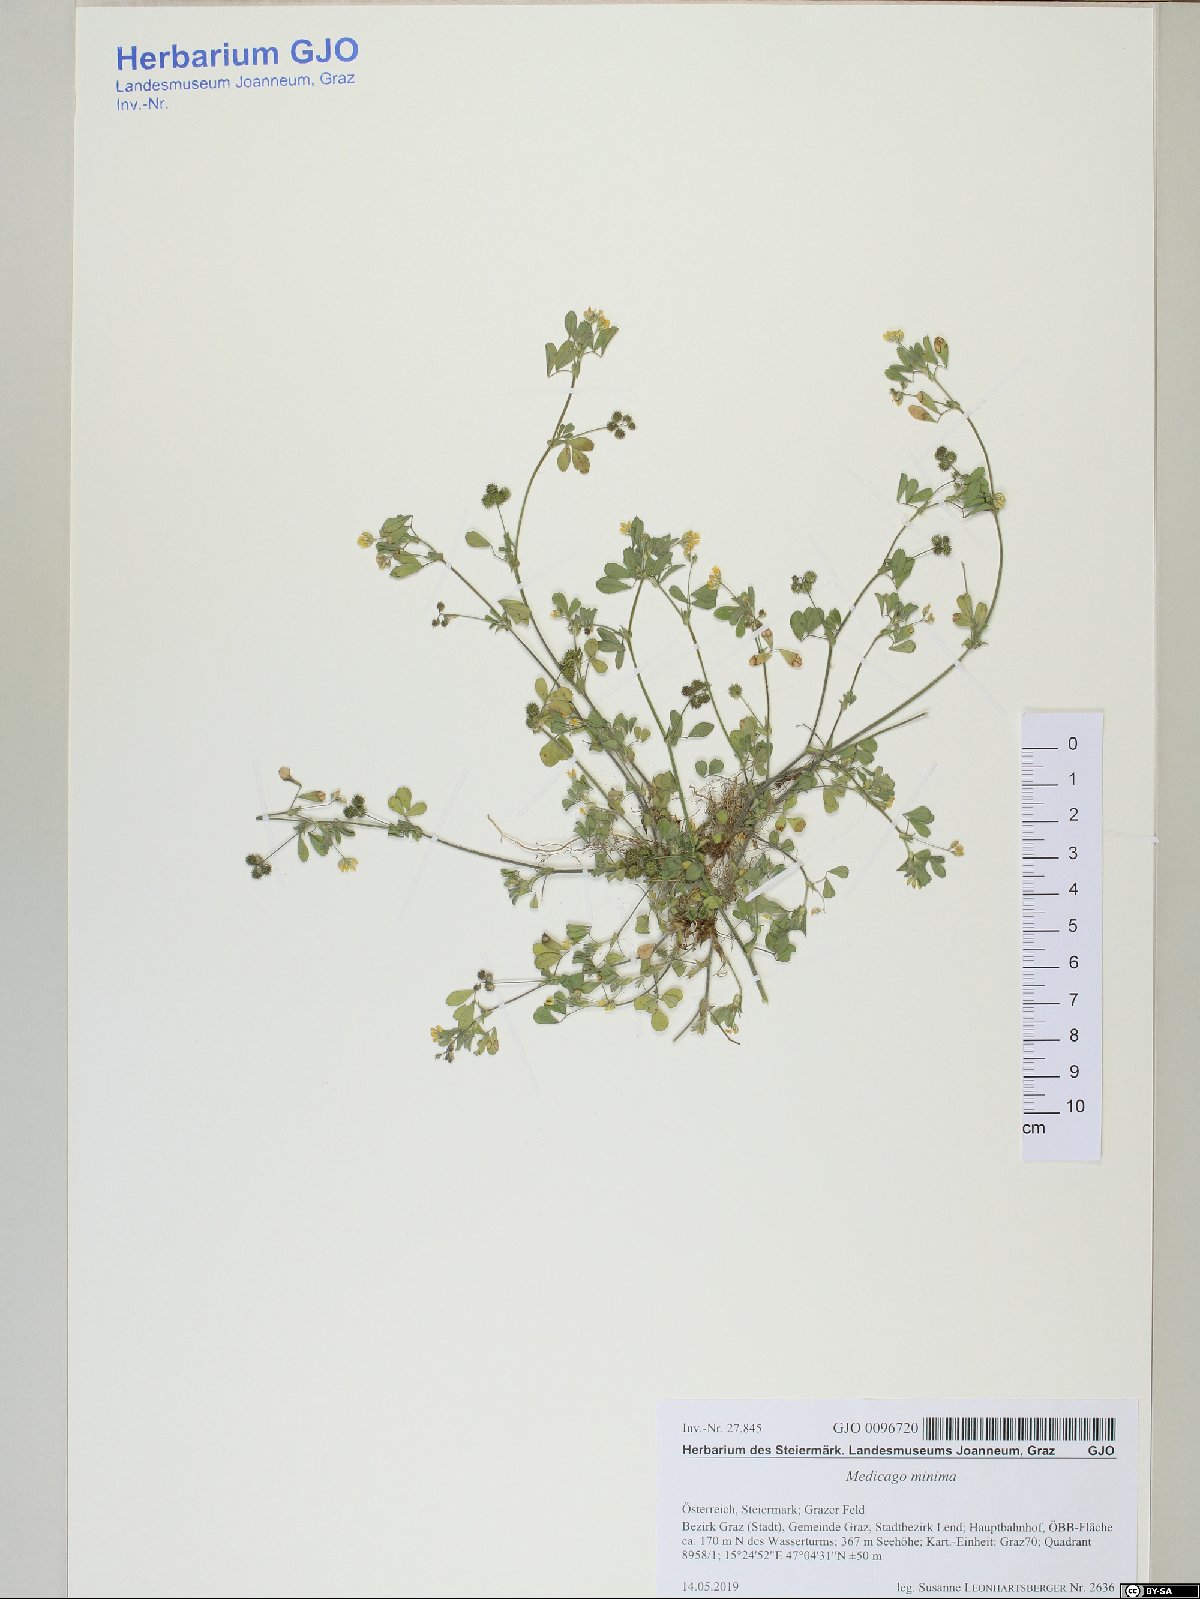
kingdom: Plantae
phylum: Tracheophyta
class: Magnoliopsida
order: Fabales
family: Fabaceae
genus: Medicago
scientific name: Medicago minima
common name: Little bur-clover
